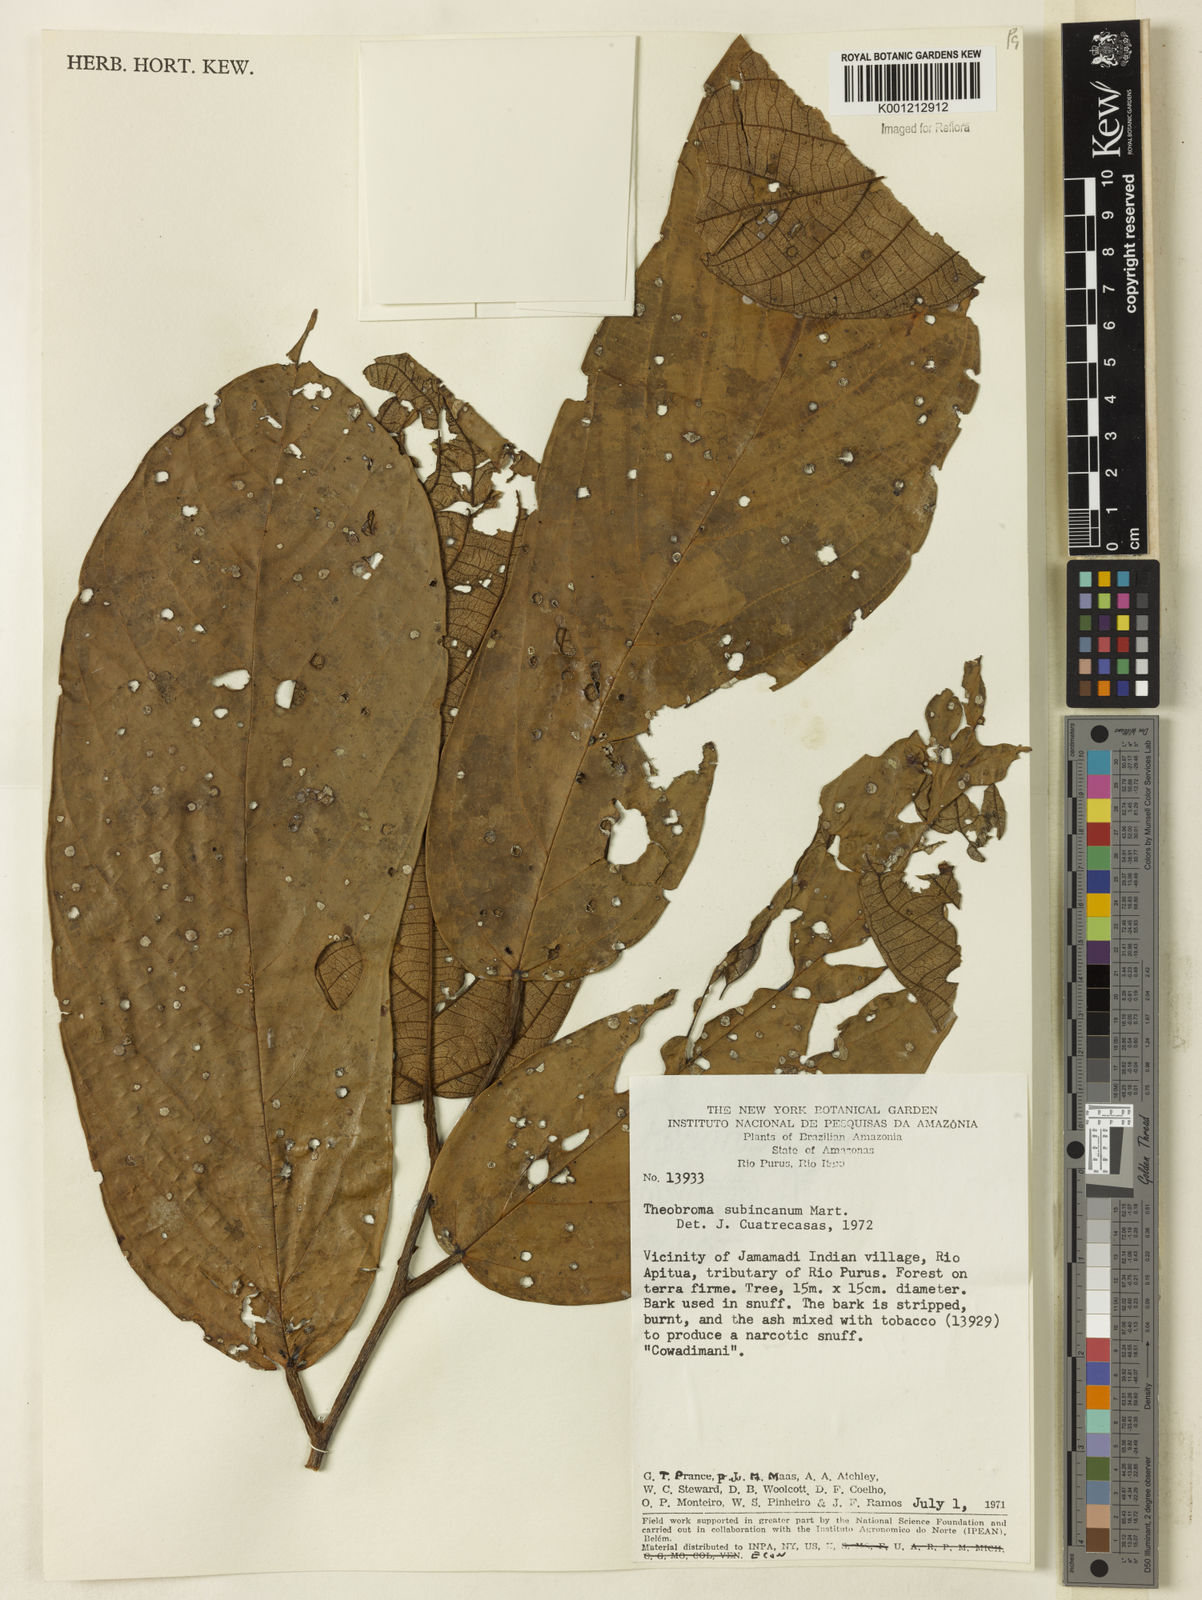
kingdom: Plantae
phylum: Tracheophyta
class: Magnoliopsida
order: Malvales
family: Malvaceae
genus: Theobroma
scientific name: Theobroma subincanum
